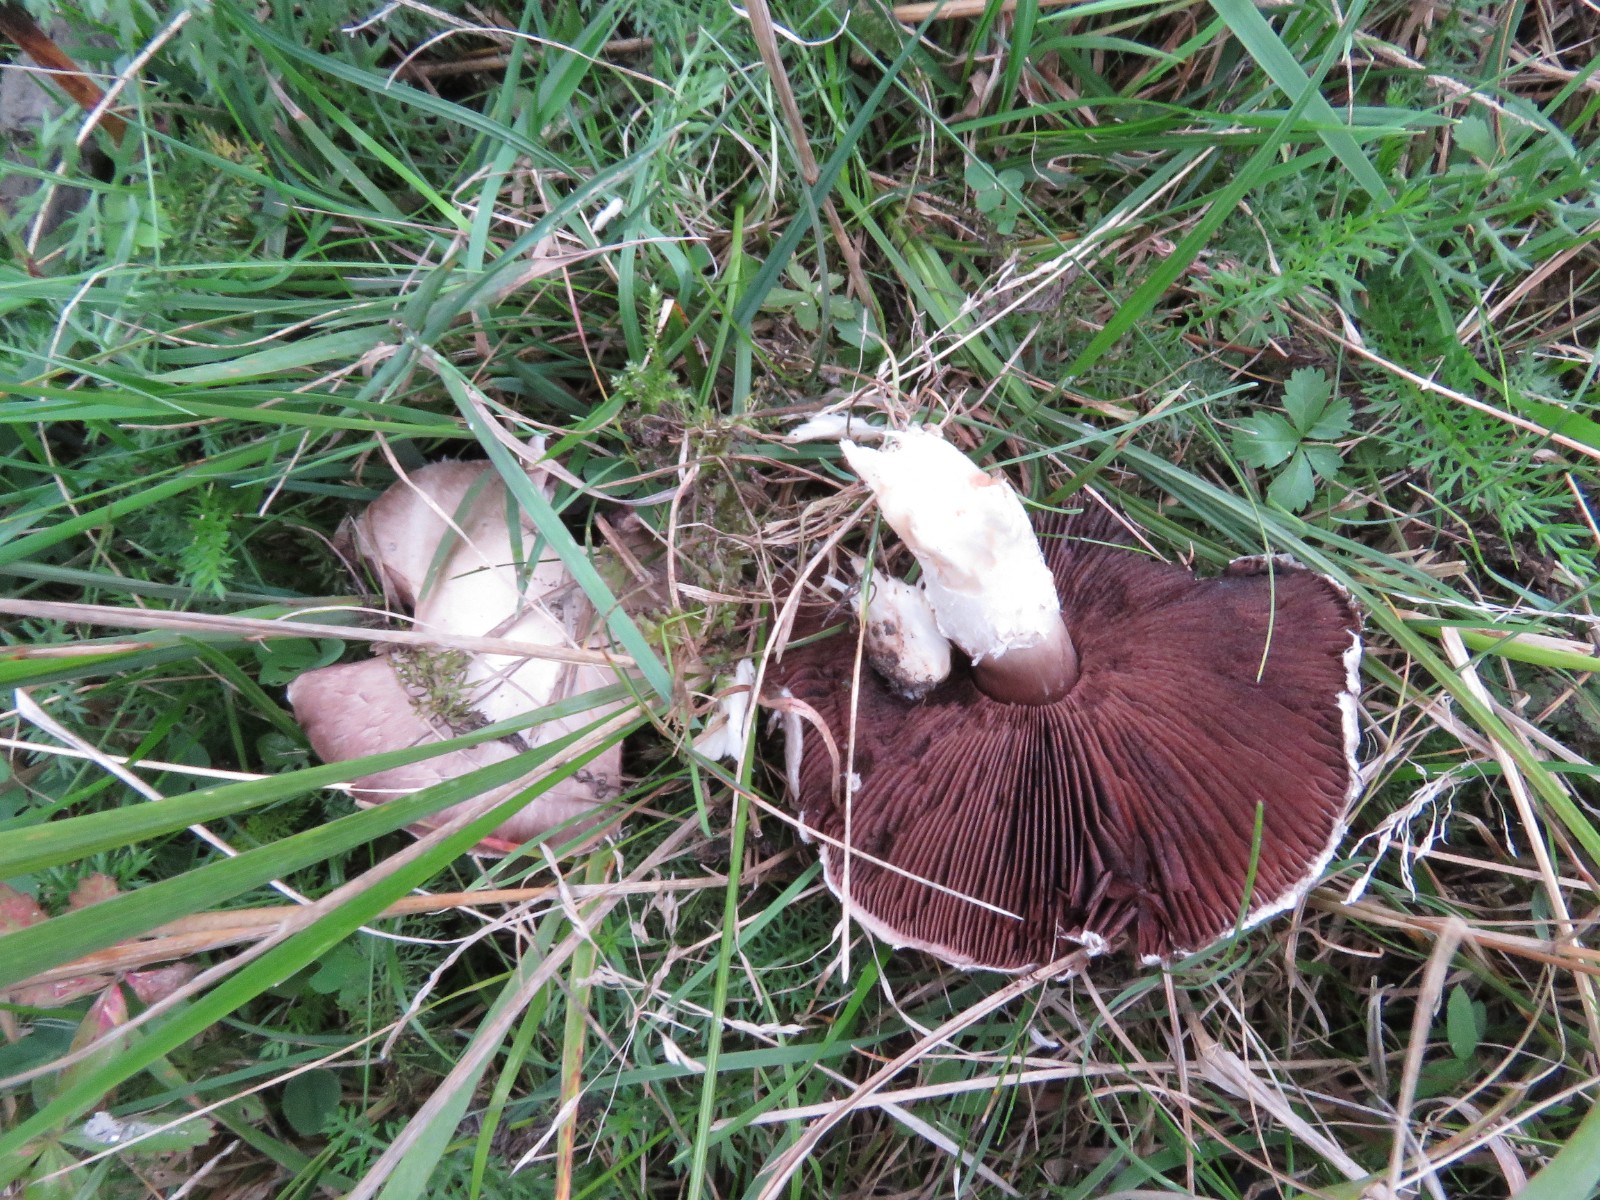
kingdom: Fungi
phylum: Basidiomycota
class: Agaricomycetes
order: Agaricales
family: Agaricaceae
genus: Agaricus
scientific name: Agaricus campestris
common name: mark-champignon
